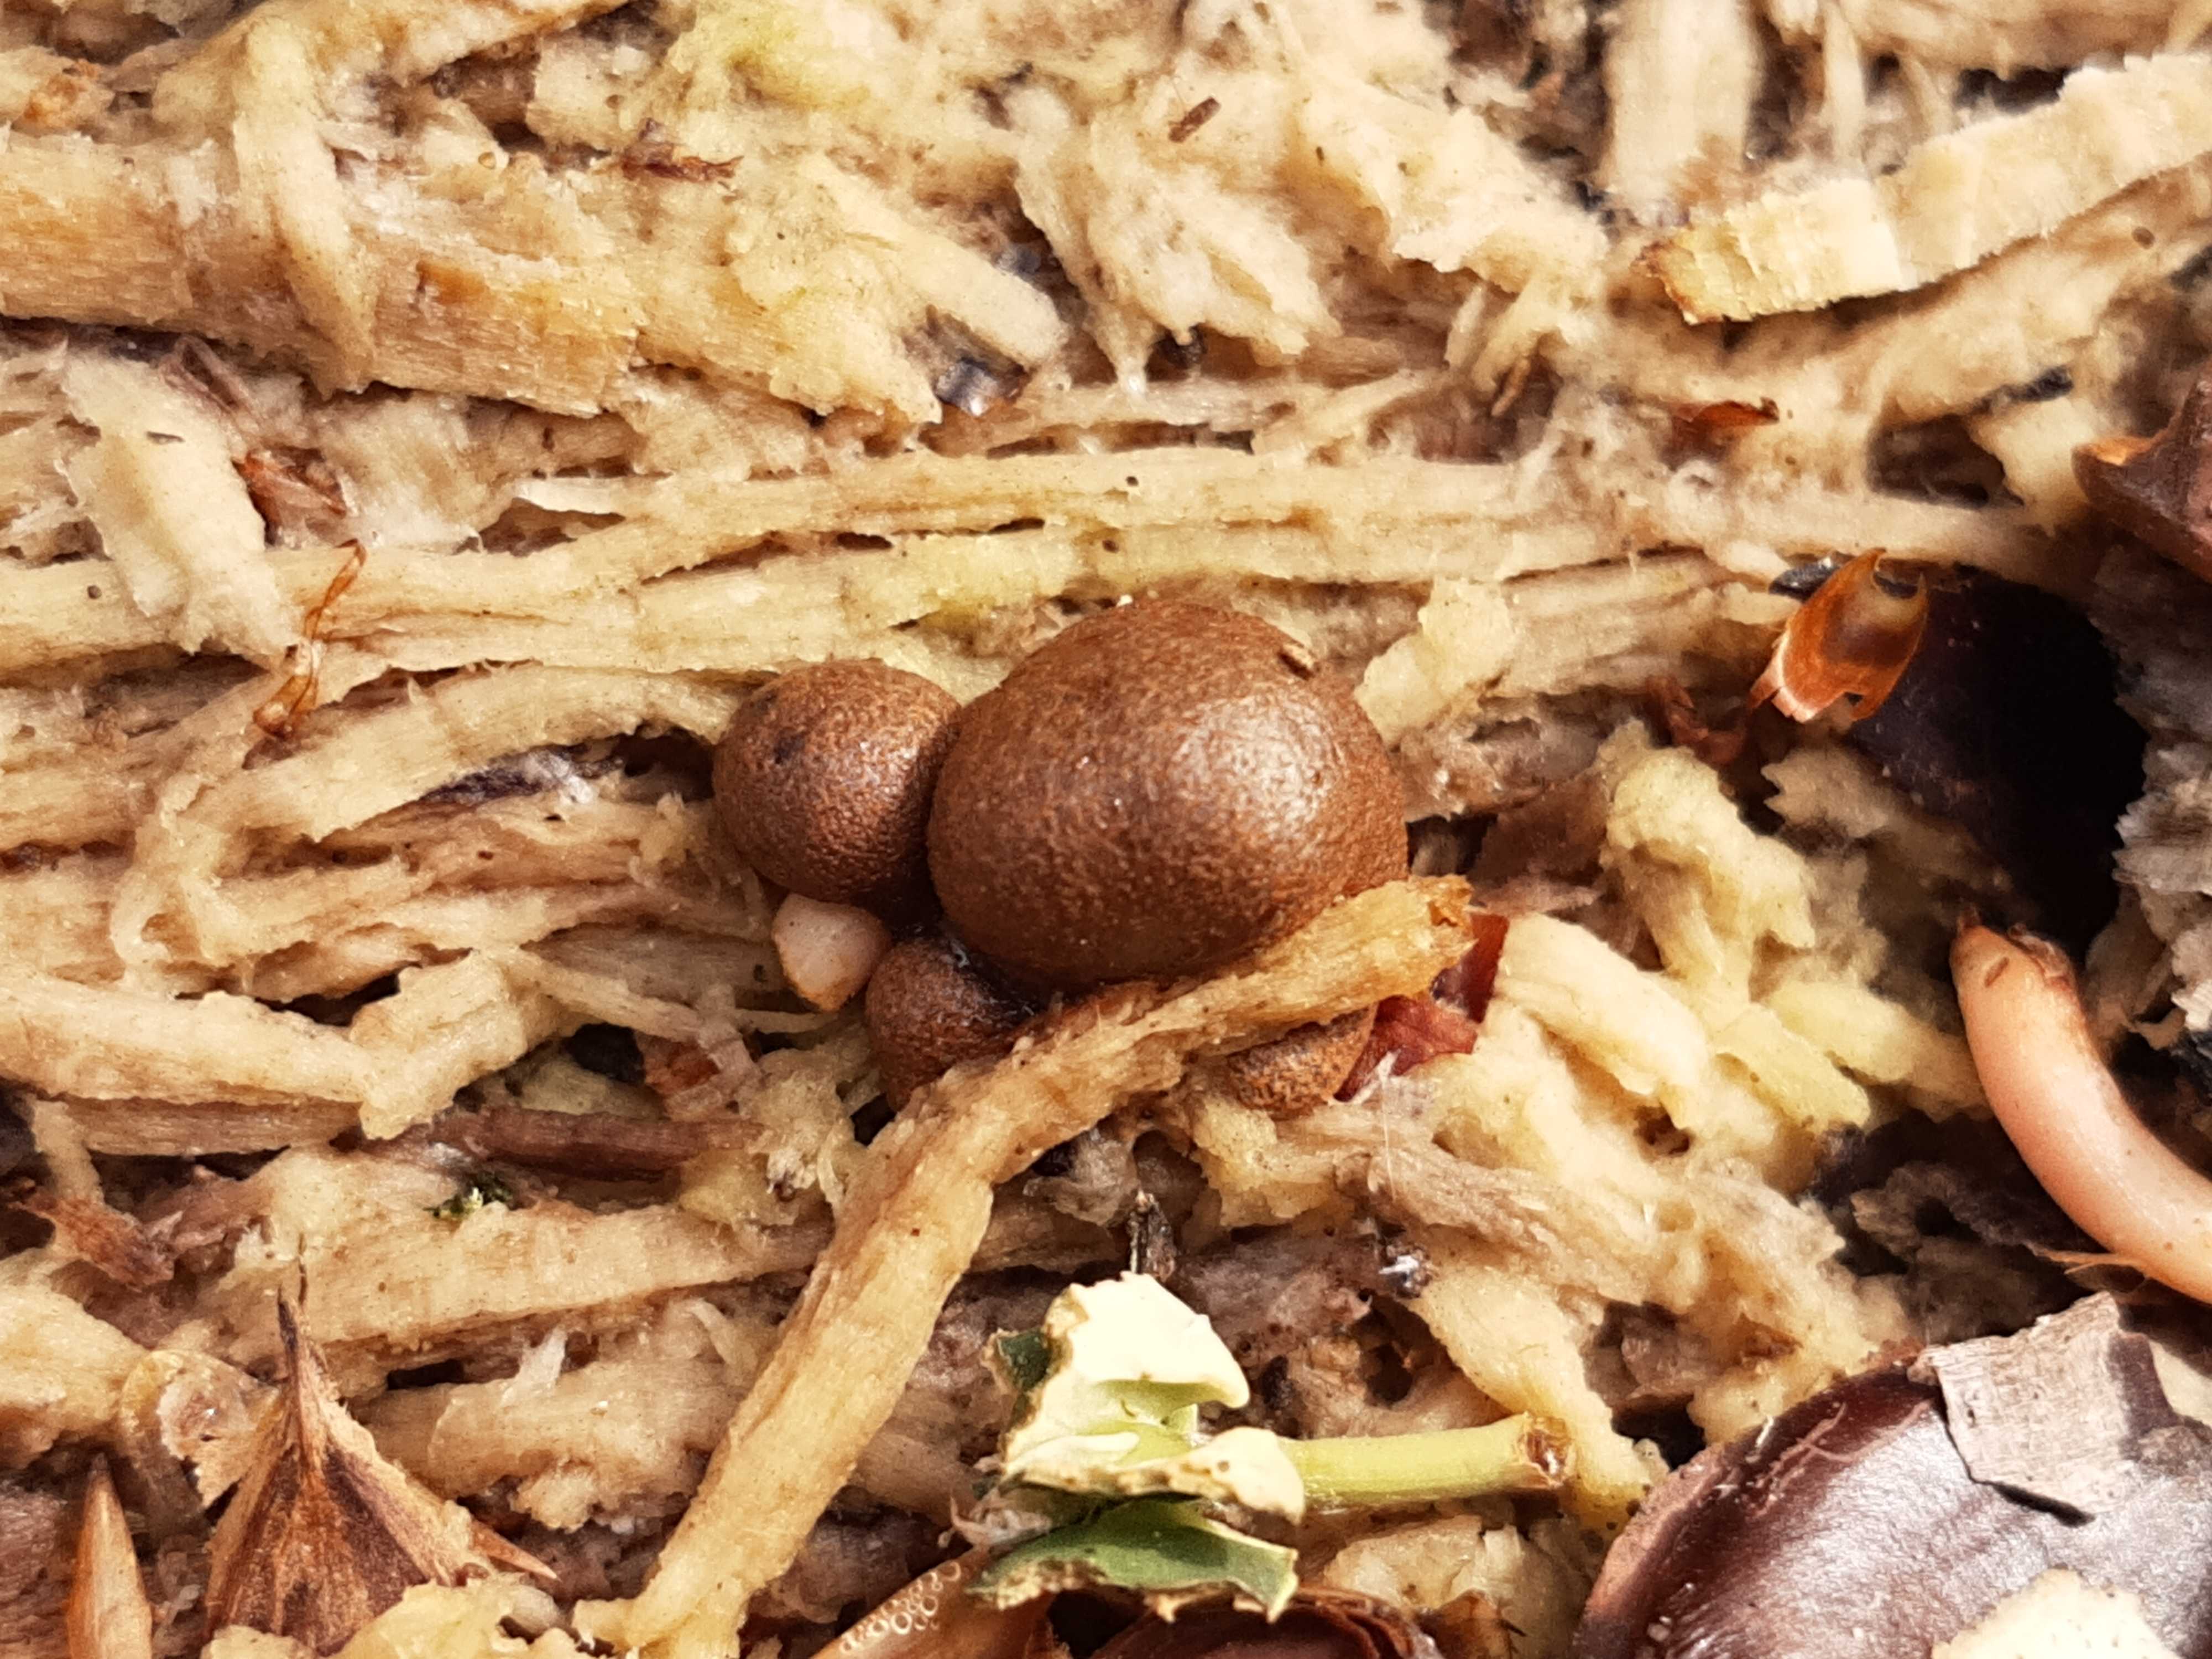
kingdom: Protozoa
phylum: Mycetozoa
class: Myxomycetes
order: Cribrariales
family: Tubiferaceae
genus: Lycogala
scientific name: Lycogala epidendrum
